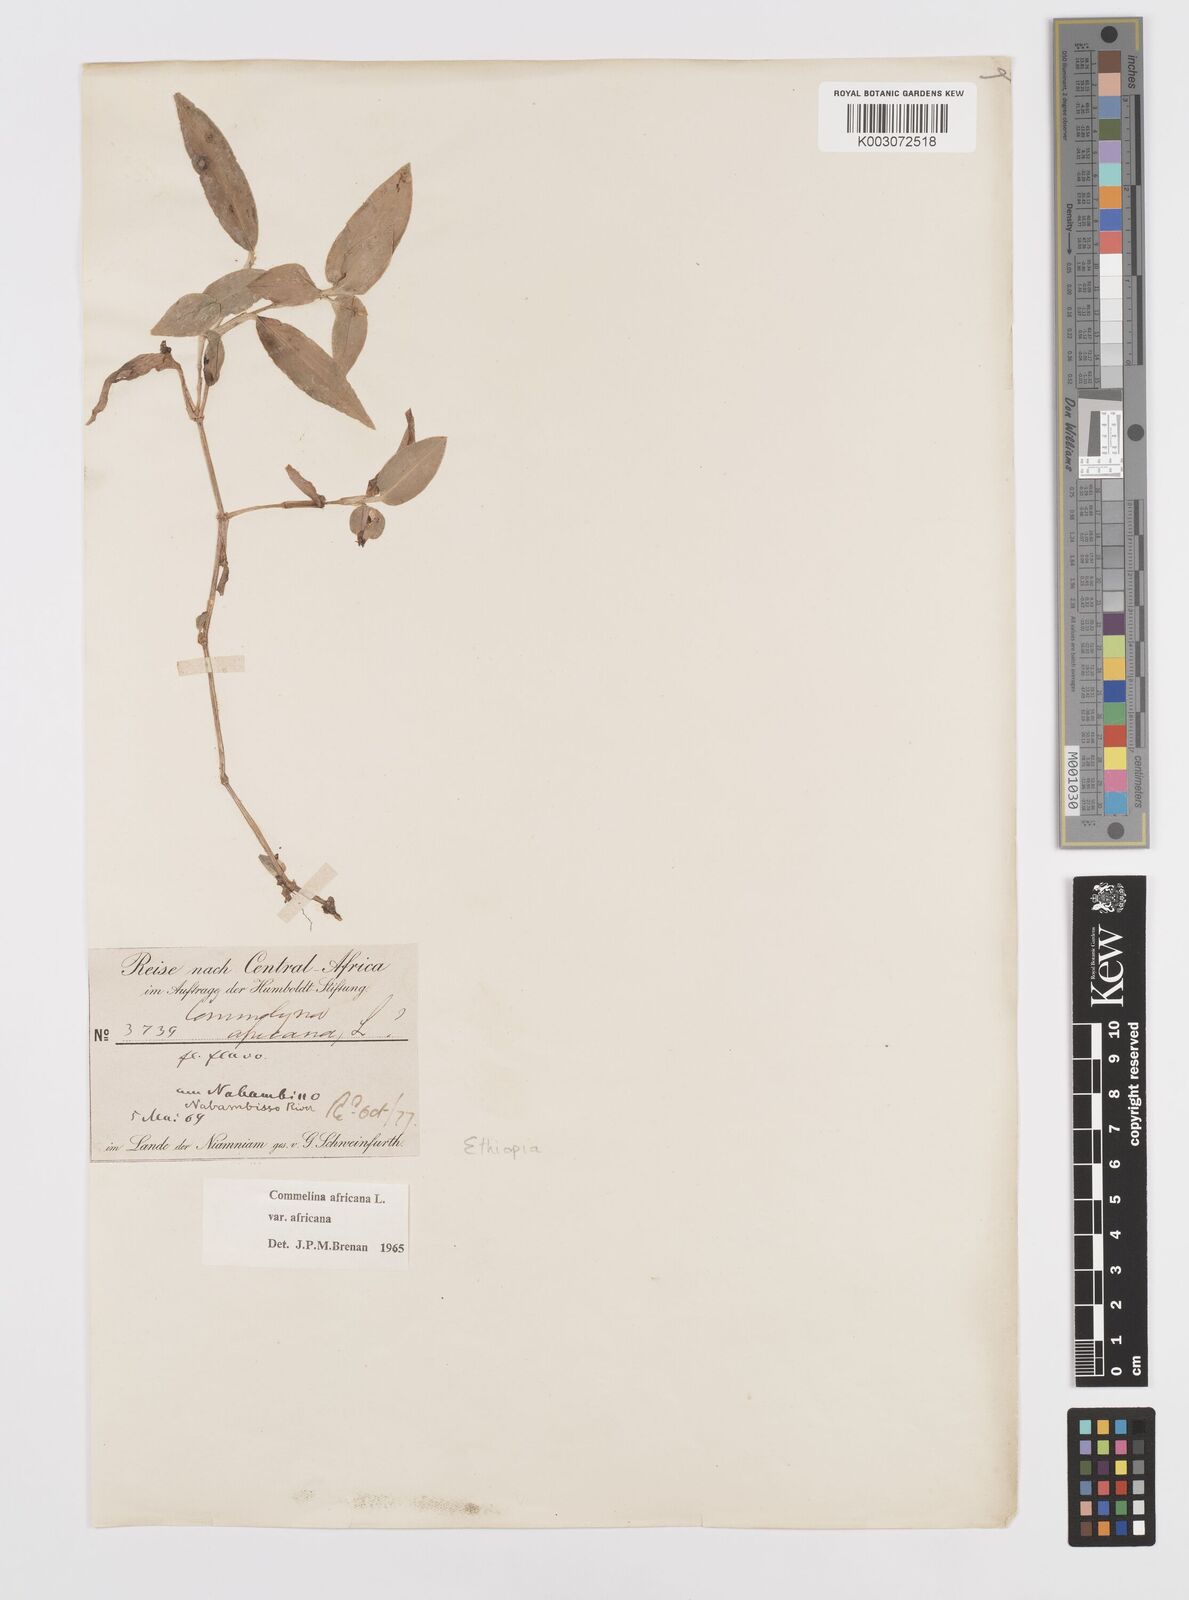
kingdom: Plantae
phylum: Tracheophyta
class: Liliopsida
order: Commelinales
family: Commelinaceae
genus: Commelina
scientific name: Commelina africana
